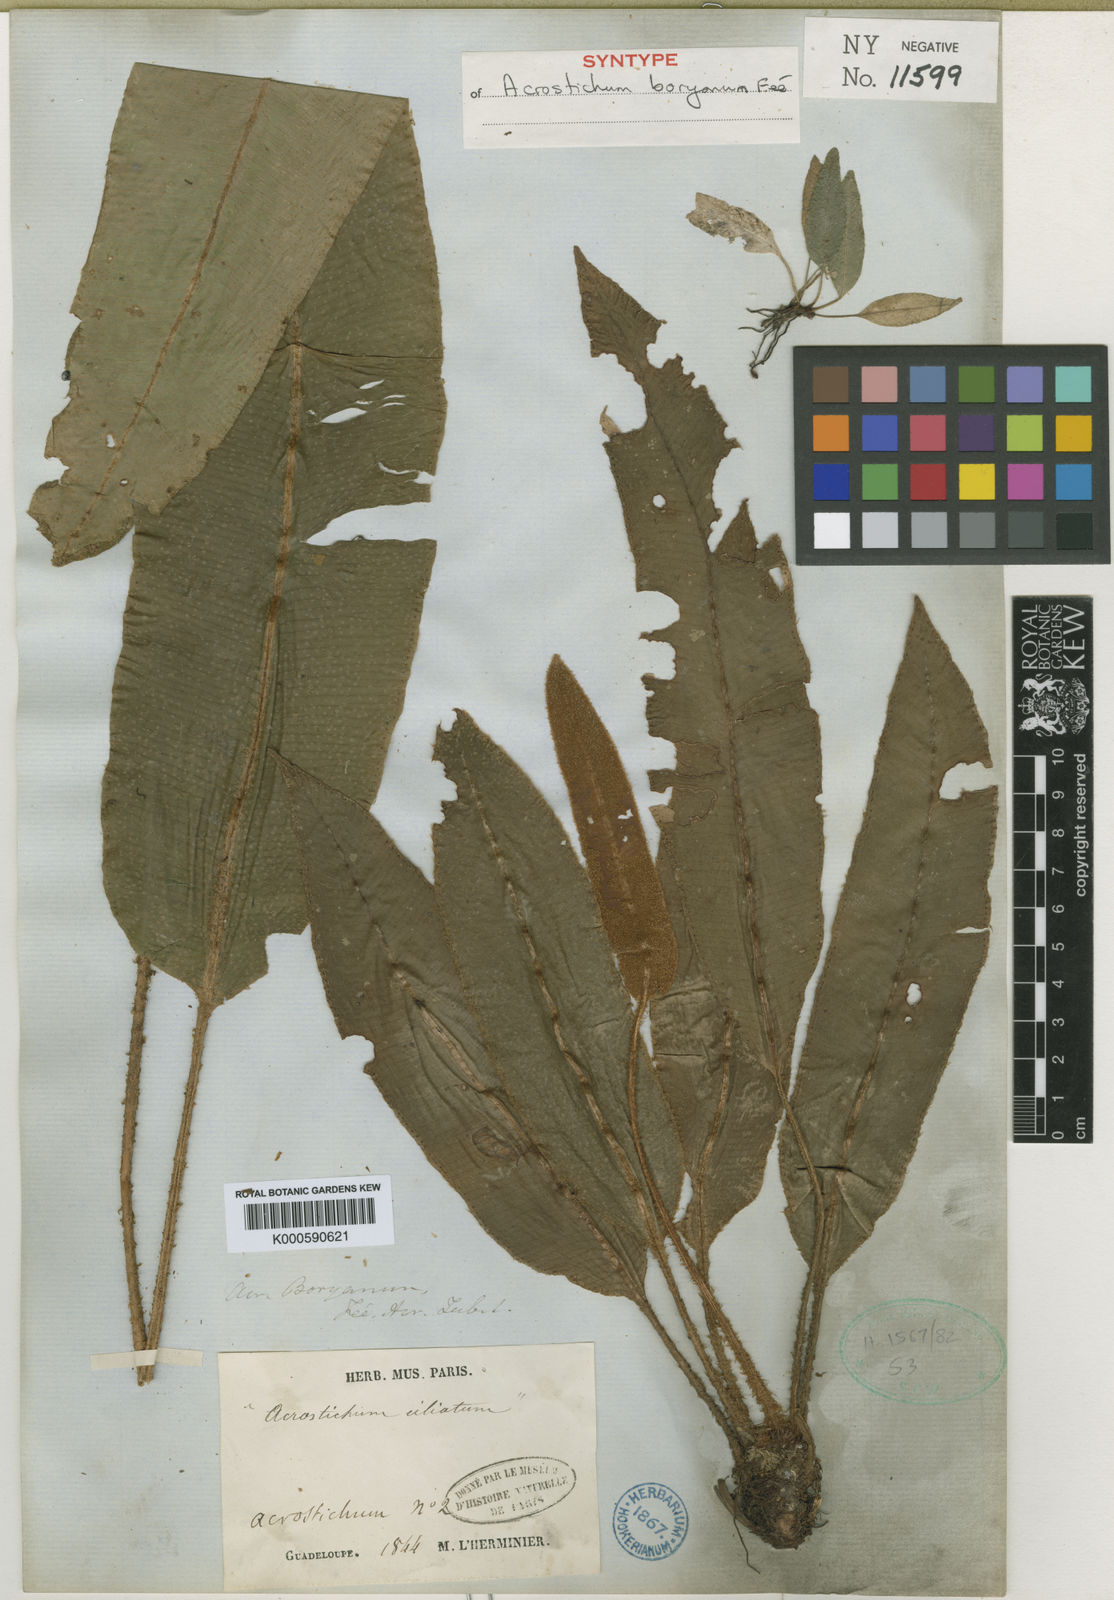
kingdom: Plantae
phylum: Tracheophyta
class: Polypodiopsida
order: Polypodiales
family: Dryopteridaceae
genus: Elaphoglossum
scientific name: Elaphoglossum
